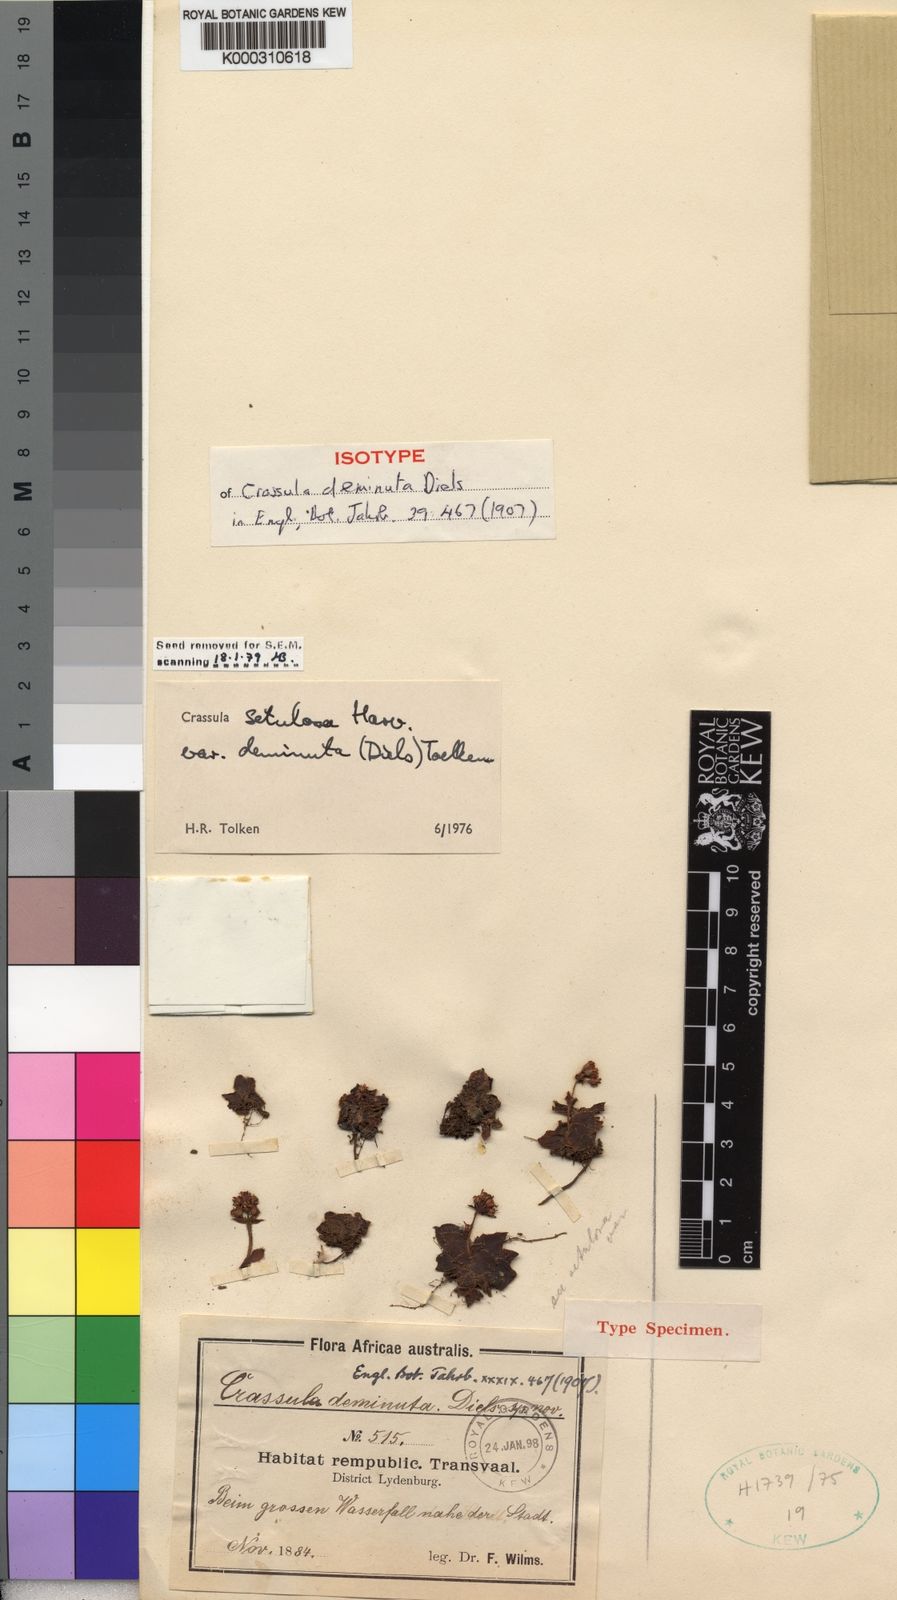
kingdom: Plantae
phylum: Tracheophyta
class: Magnoliopsida
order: Saxifragales
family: Crassulaceae
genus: Crassula
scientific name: Crassula setulosa
